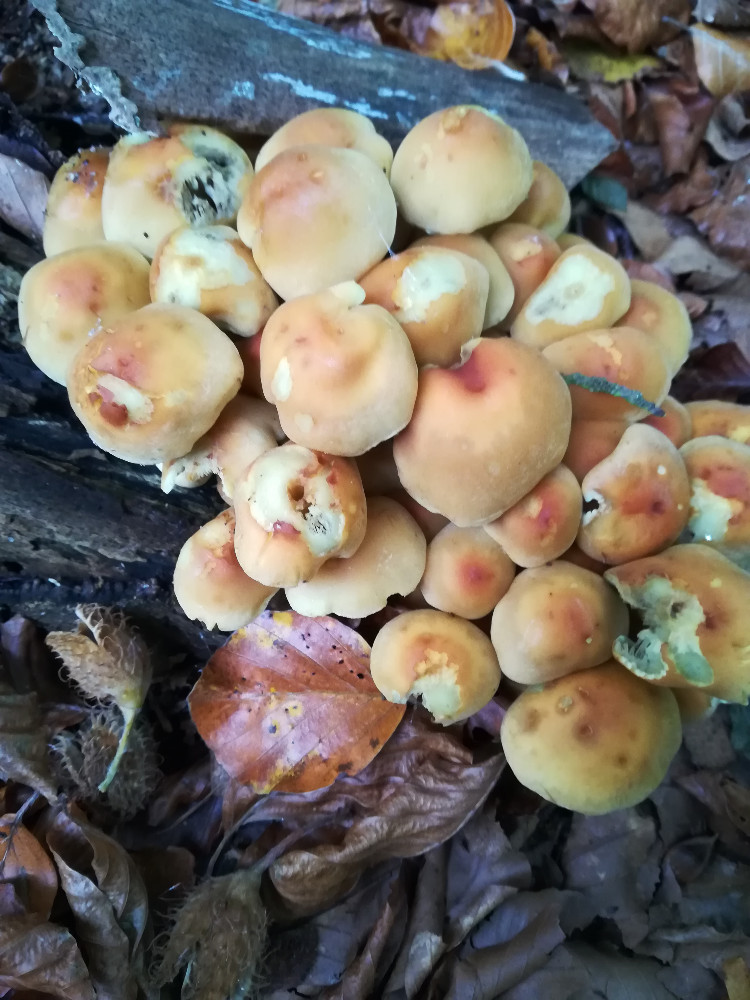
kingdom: Fungi
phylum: Basidiomycota
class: Agaricomycetes
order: Agaricales
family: Strophariaceae
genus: Hypholoma
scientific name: Hypholoma fasciculare
